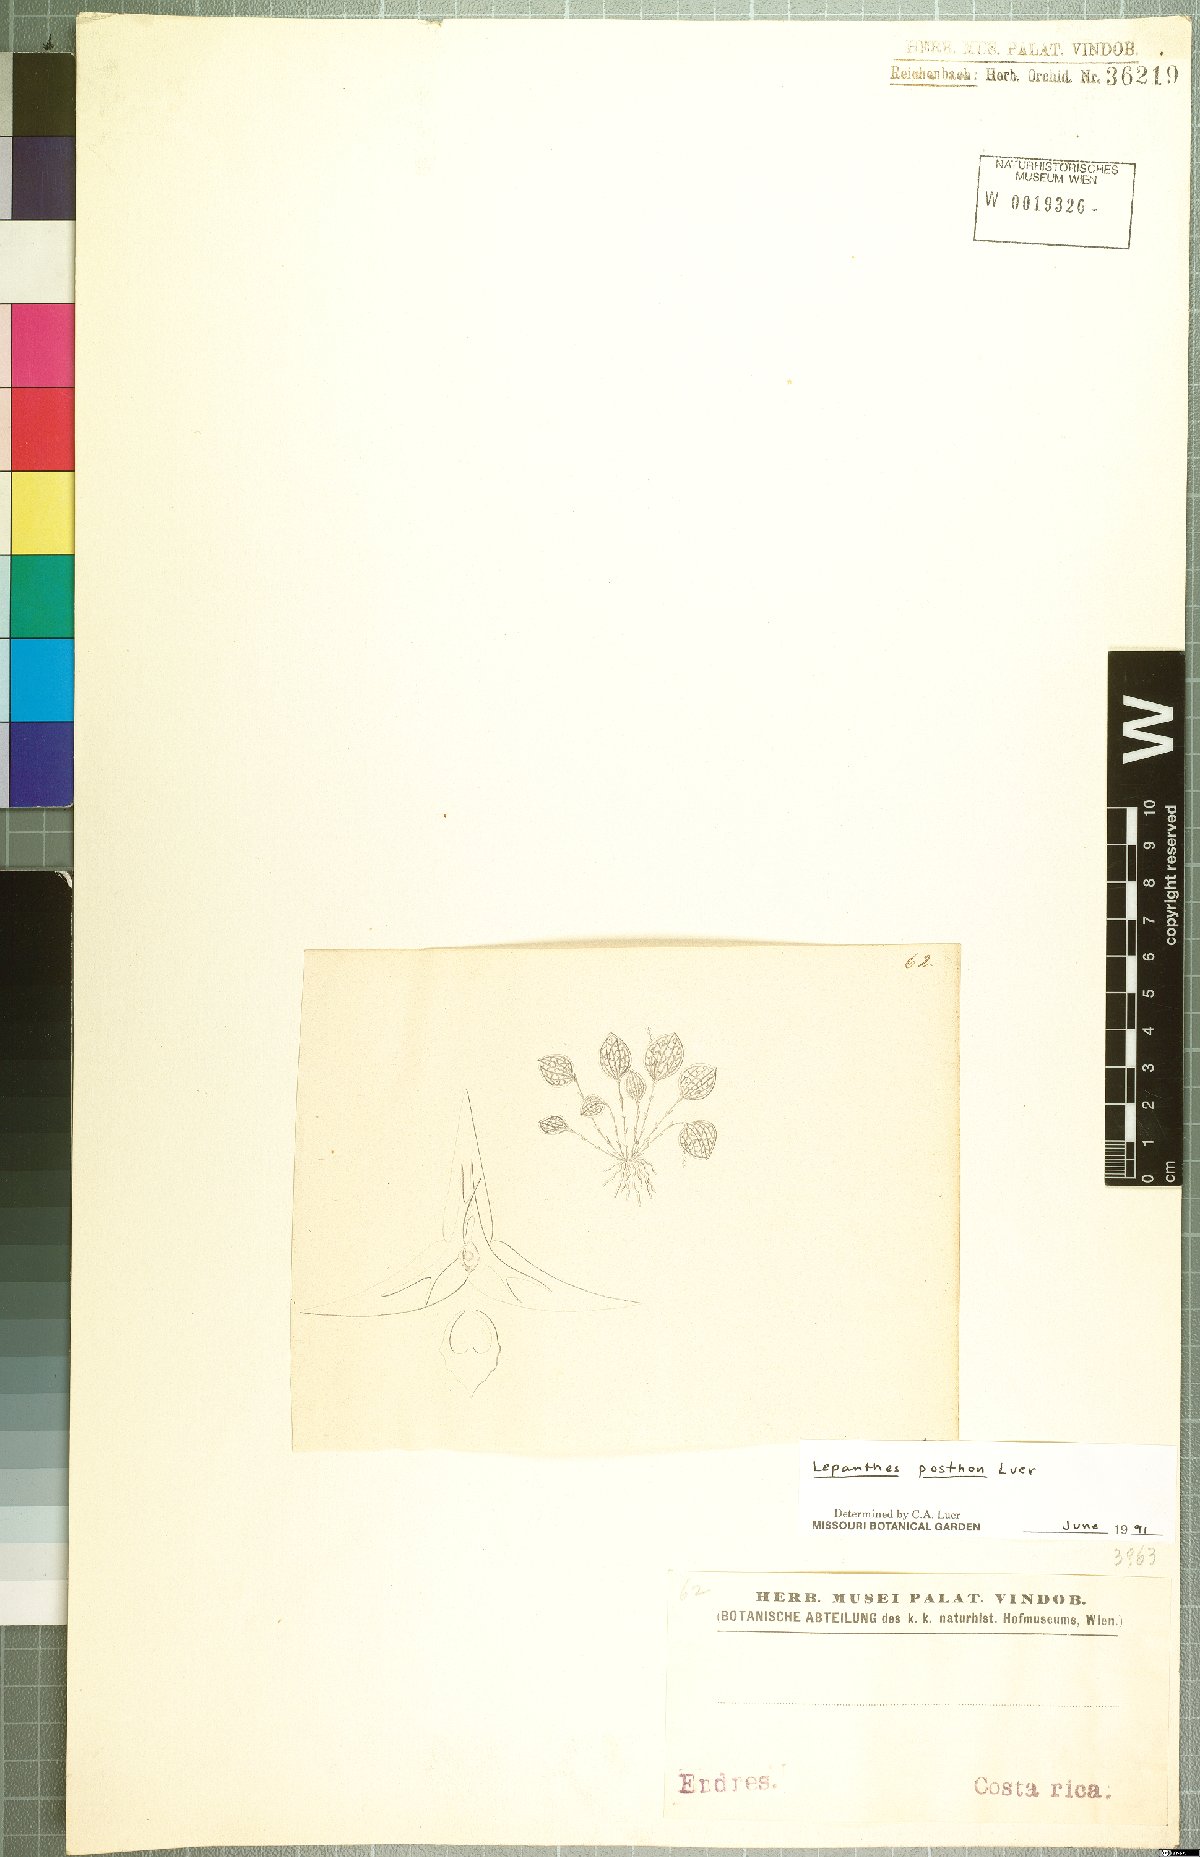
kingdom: Plantae
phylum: Tracheophyta
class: Liliopsida
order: Asparagales
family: Orchidaceae
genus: Lepanthes
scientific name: Lepanthes posthon
